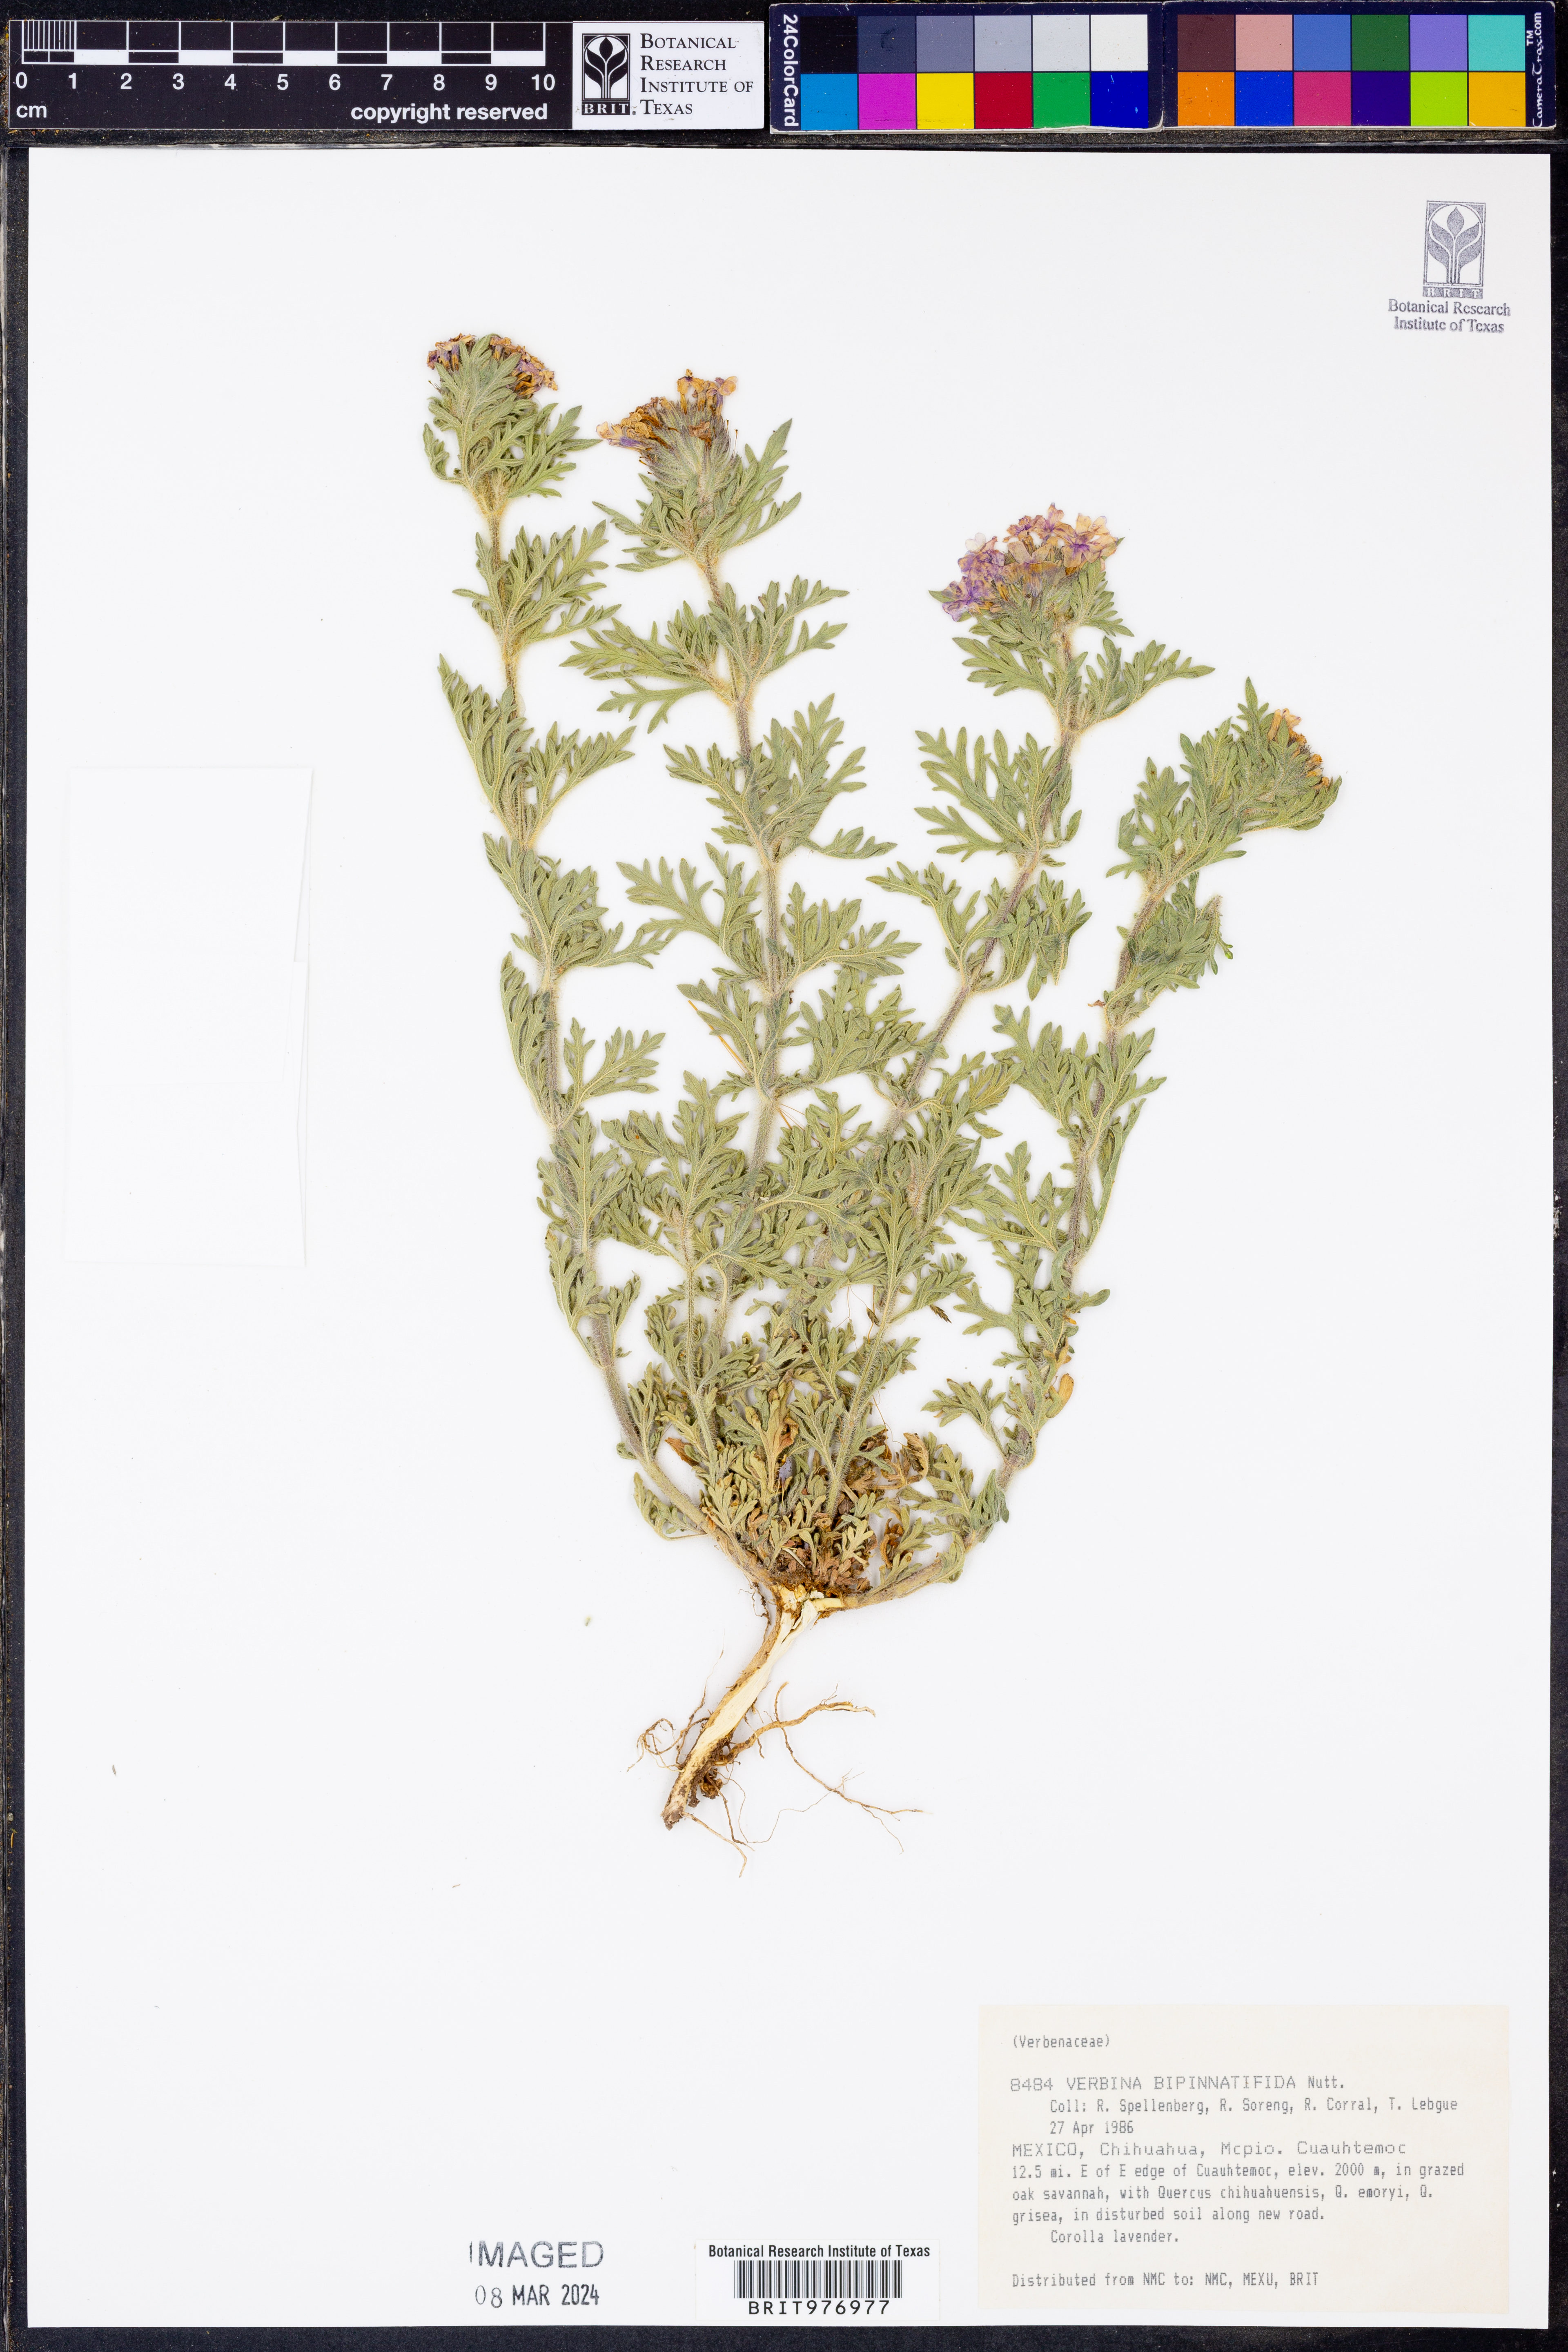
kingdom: Plantae
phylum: Tracheophyta
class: Magnoliopsida
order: Lamiales
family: Verbenaceae
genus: Verbena
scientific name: Verbena bipinnatifida
